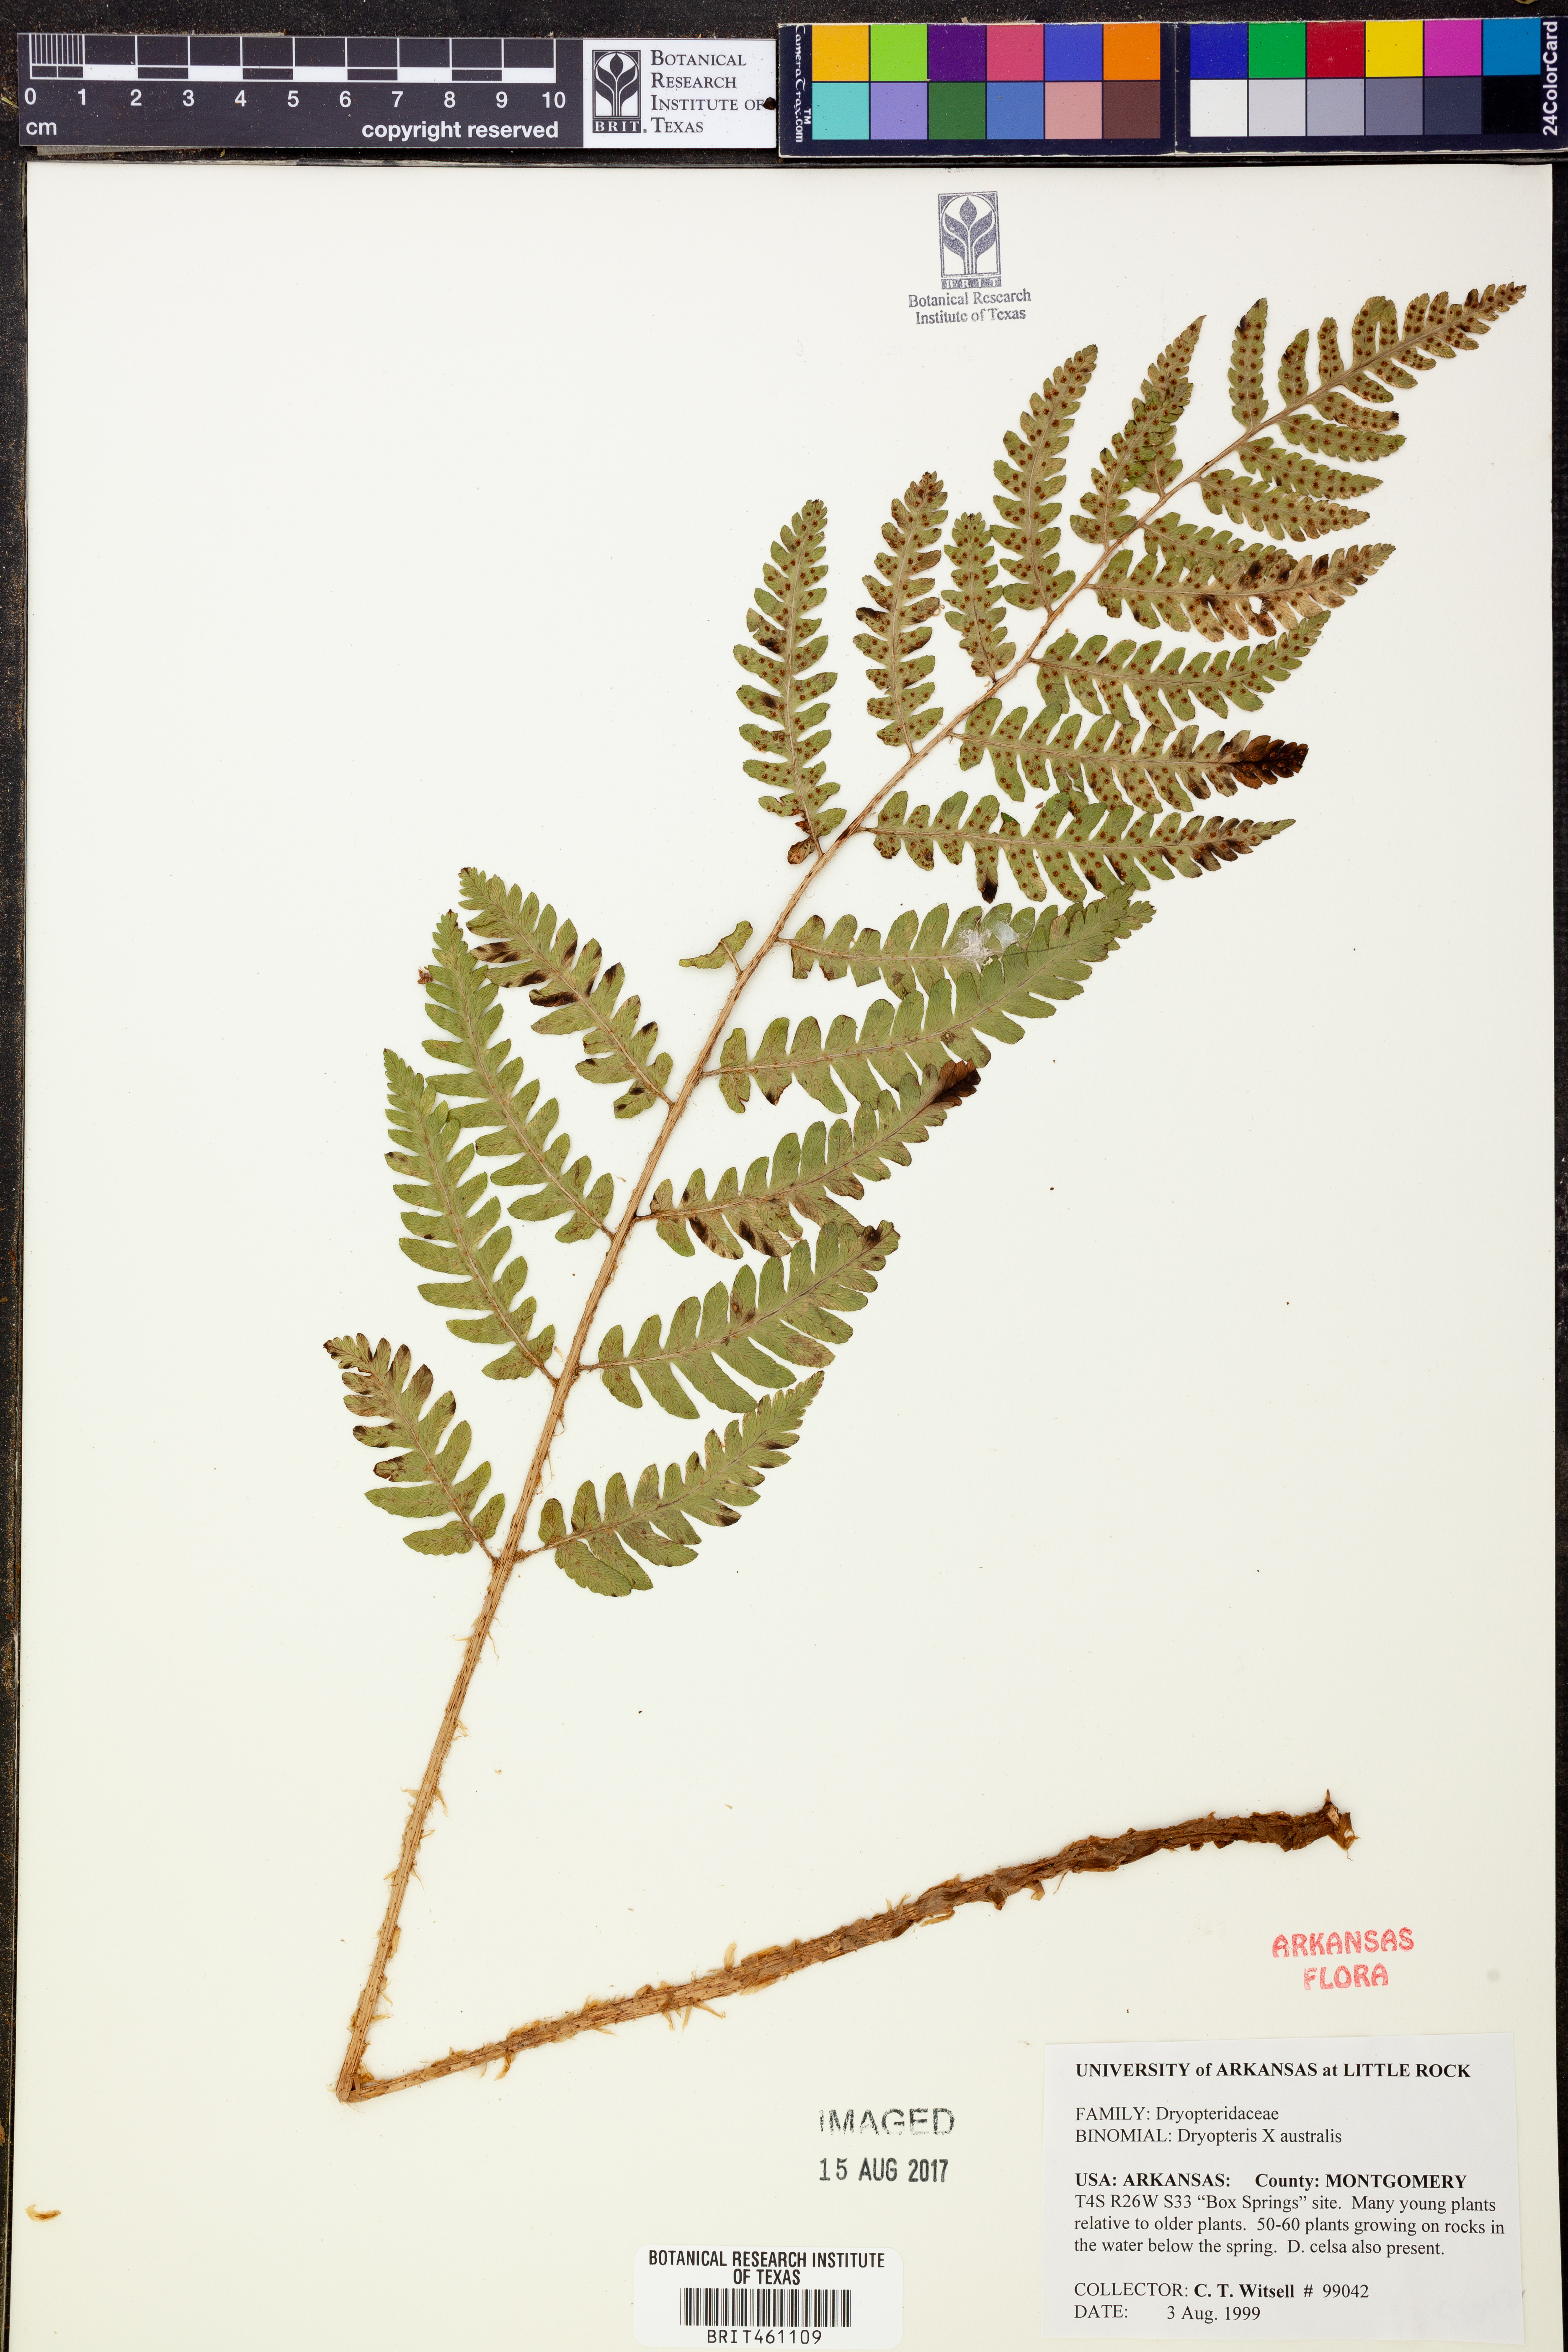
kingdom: Plantae
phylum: Tracheophyta
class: Polypodiopsida
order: Polypodiales
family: Dryopteridaceae
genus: Dryopteris
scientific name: Dryopteris
